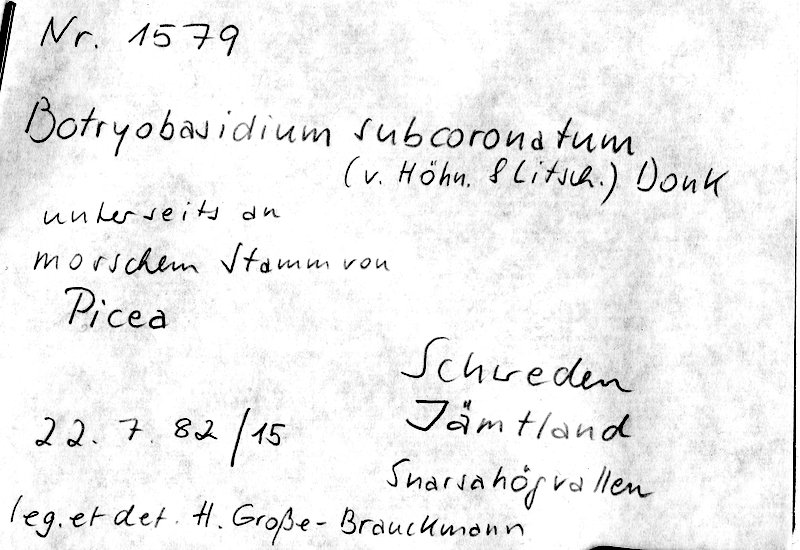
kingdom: Plantae
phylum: Tracheophyta
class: Pinopsida
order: Pinales
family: Pinaceae
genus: Picea
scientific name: Picea
